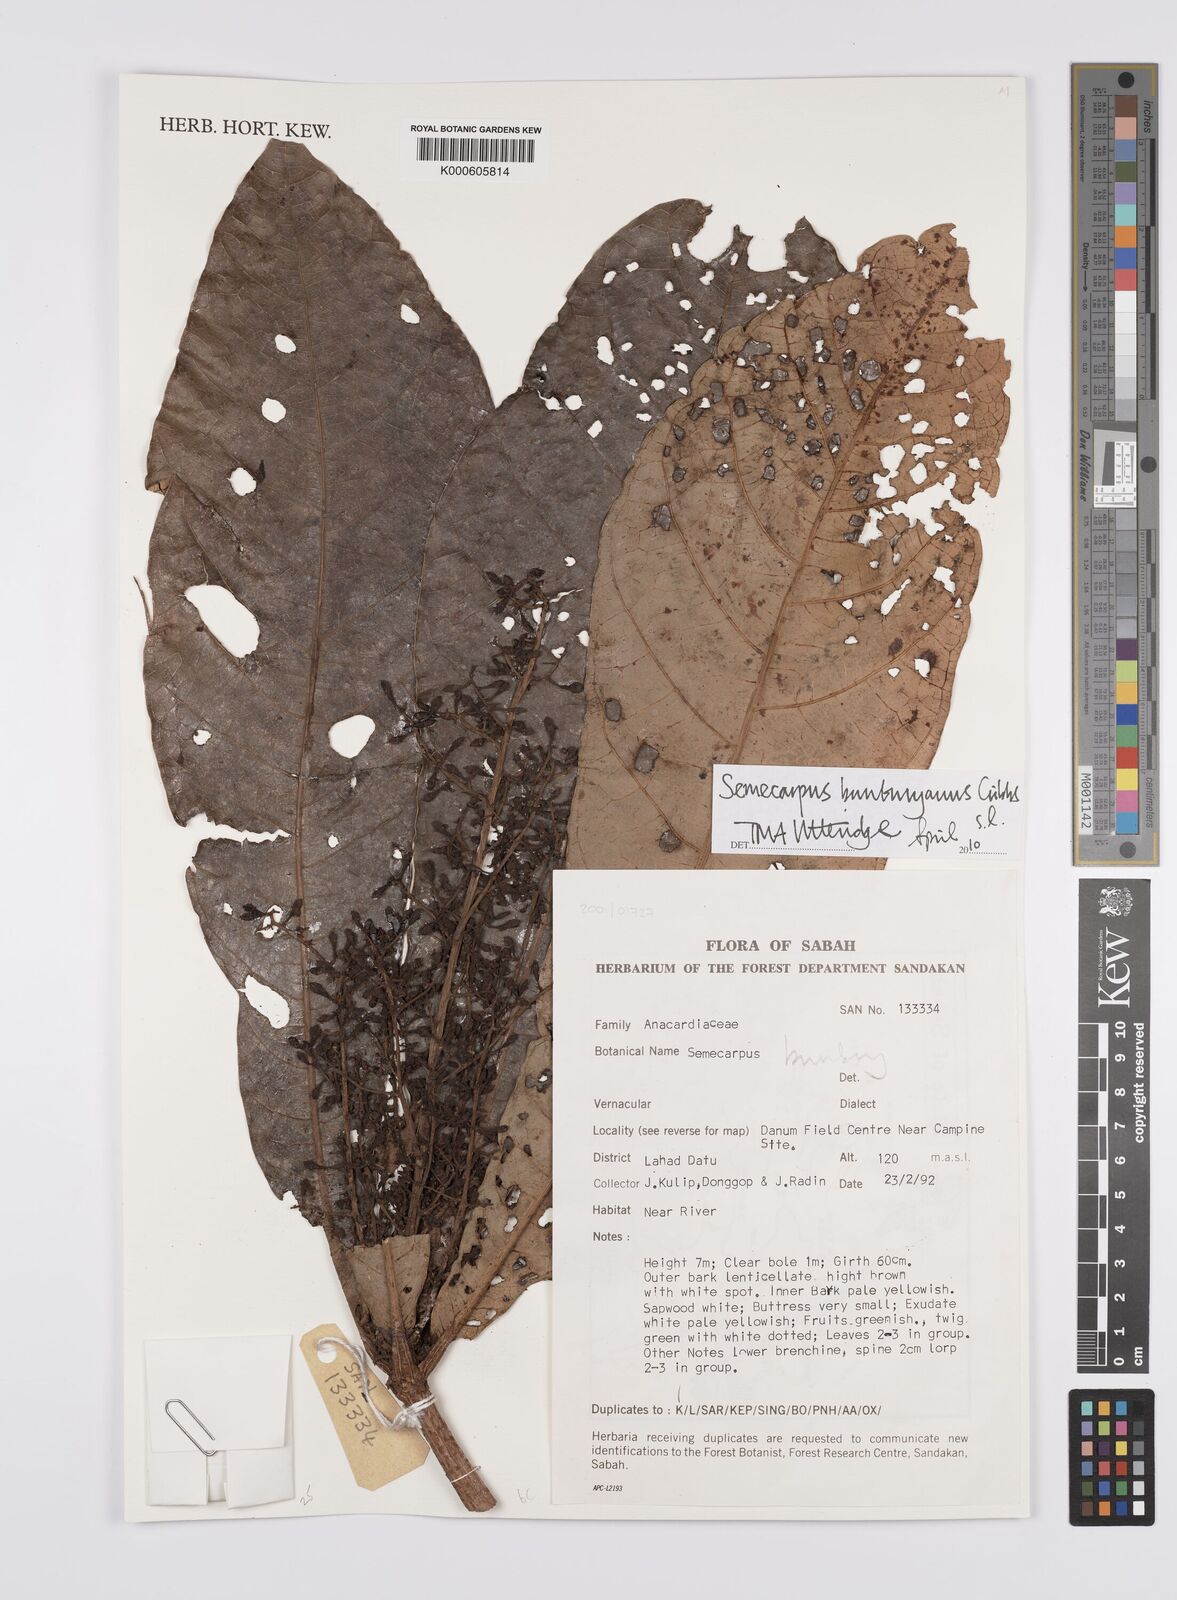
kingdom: Plantae
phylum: Tracheophyta
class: Magnoliopsida
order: Sapindales
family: Anacardiaceae
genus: Semecarpus
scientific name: Semecarpus bunburyanus
